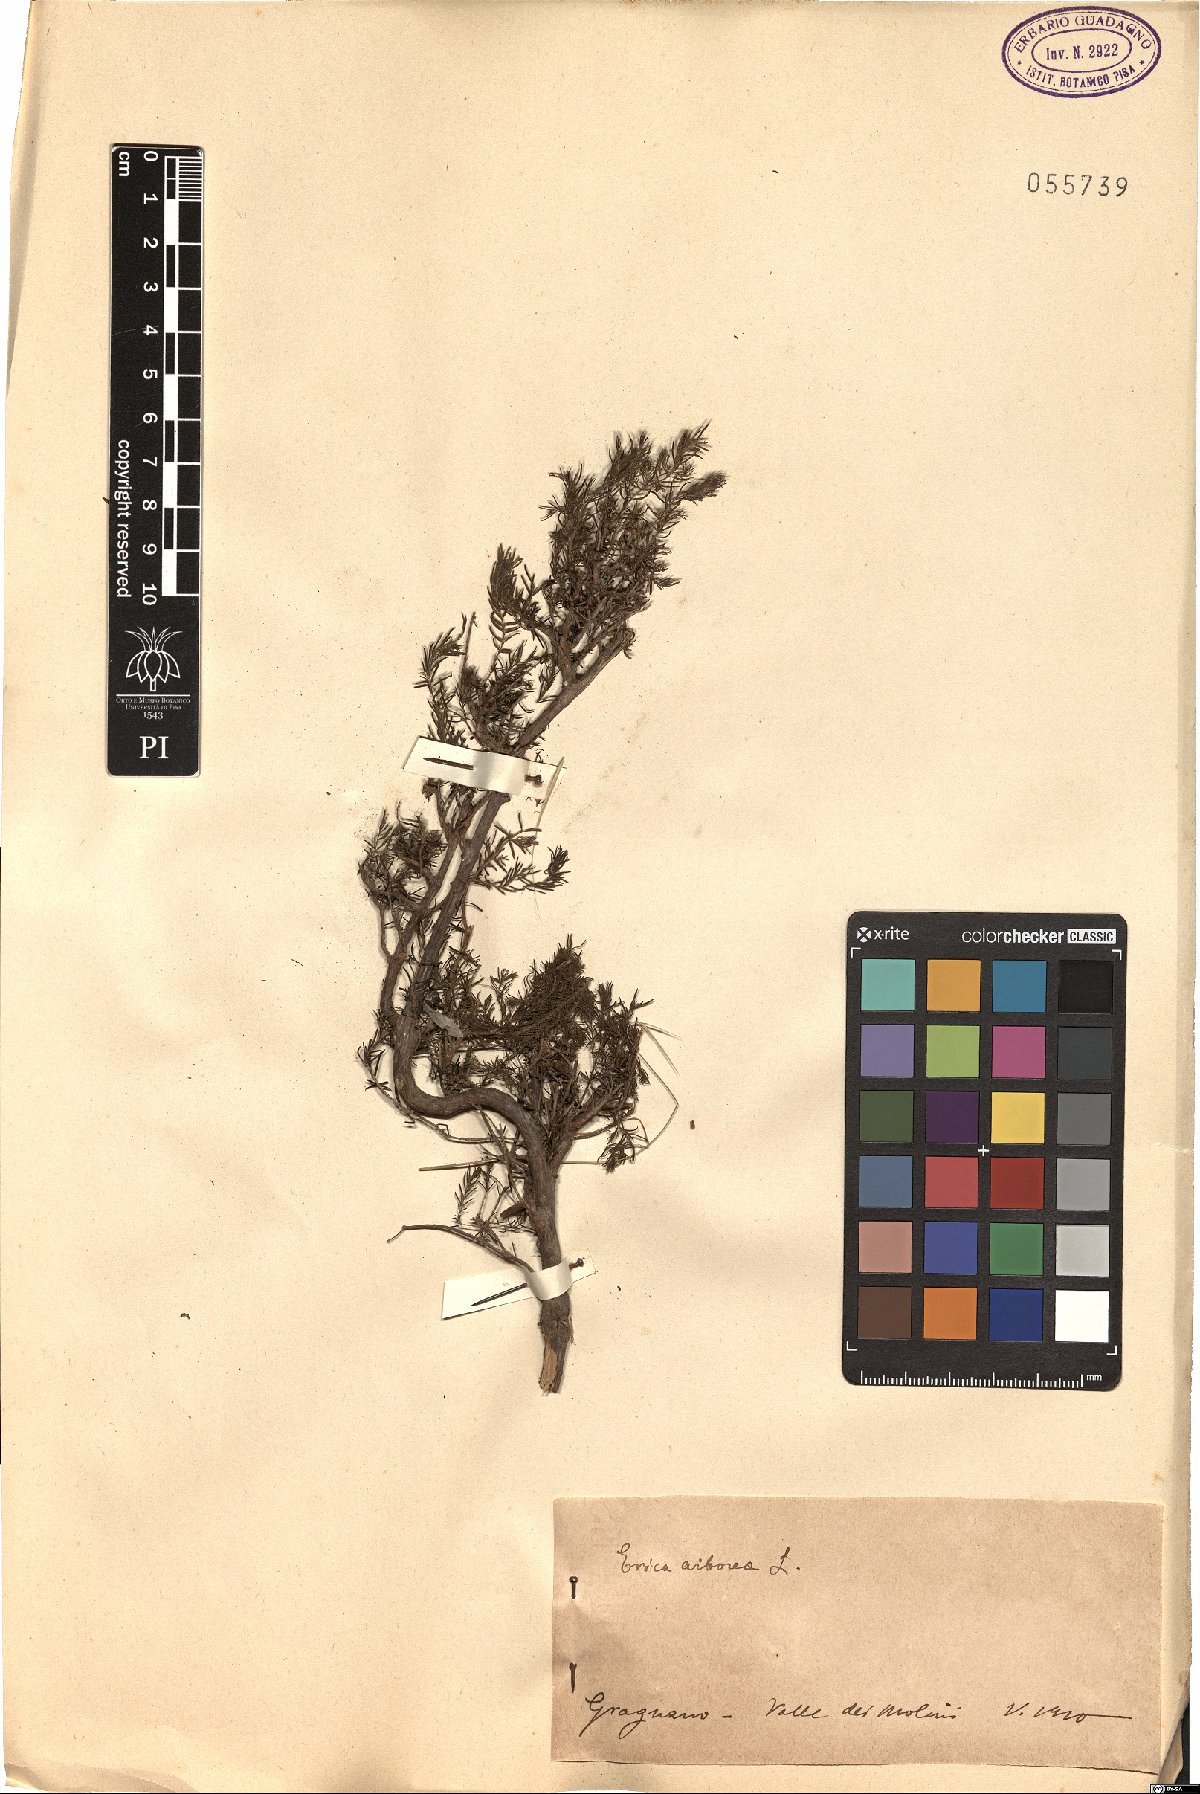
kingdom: Plantae
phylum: Tracheophyta
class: Magnoliopsida
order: Ericales
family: Ericaceae
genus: Erica
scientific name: Erica arborea
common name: Tree heath
